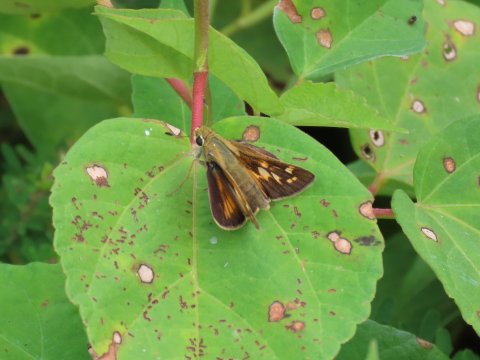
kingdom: Animalia
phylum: Arthropoda
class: Insecta
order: Lepidoptera
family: Hesperiidae
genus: Atalopedes
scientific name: Atalopedes campestris
